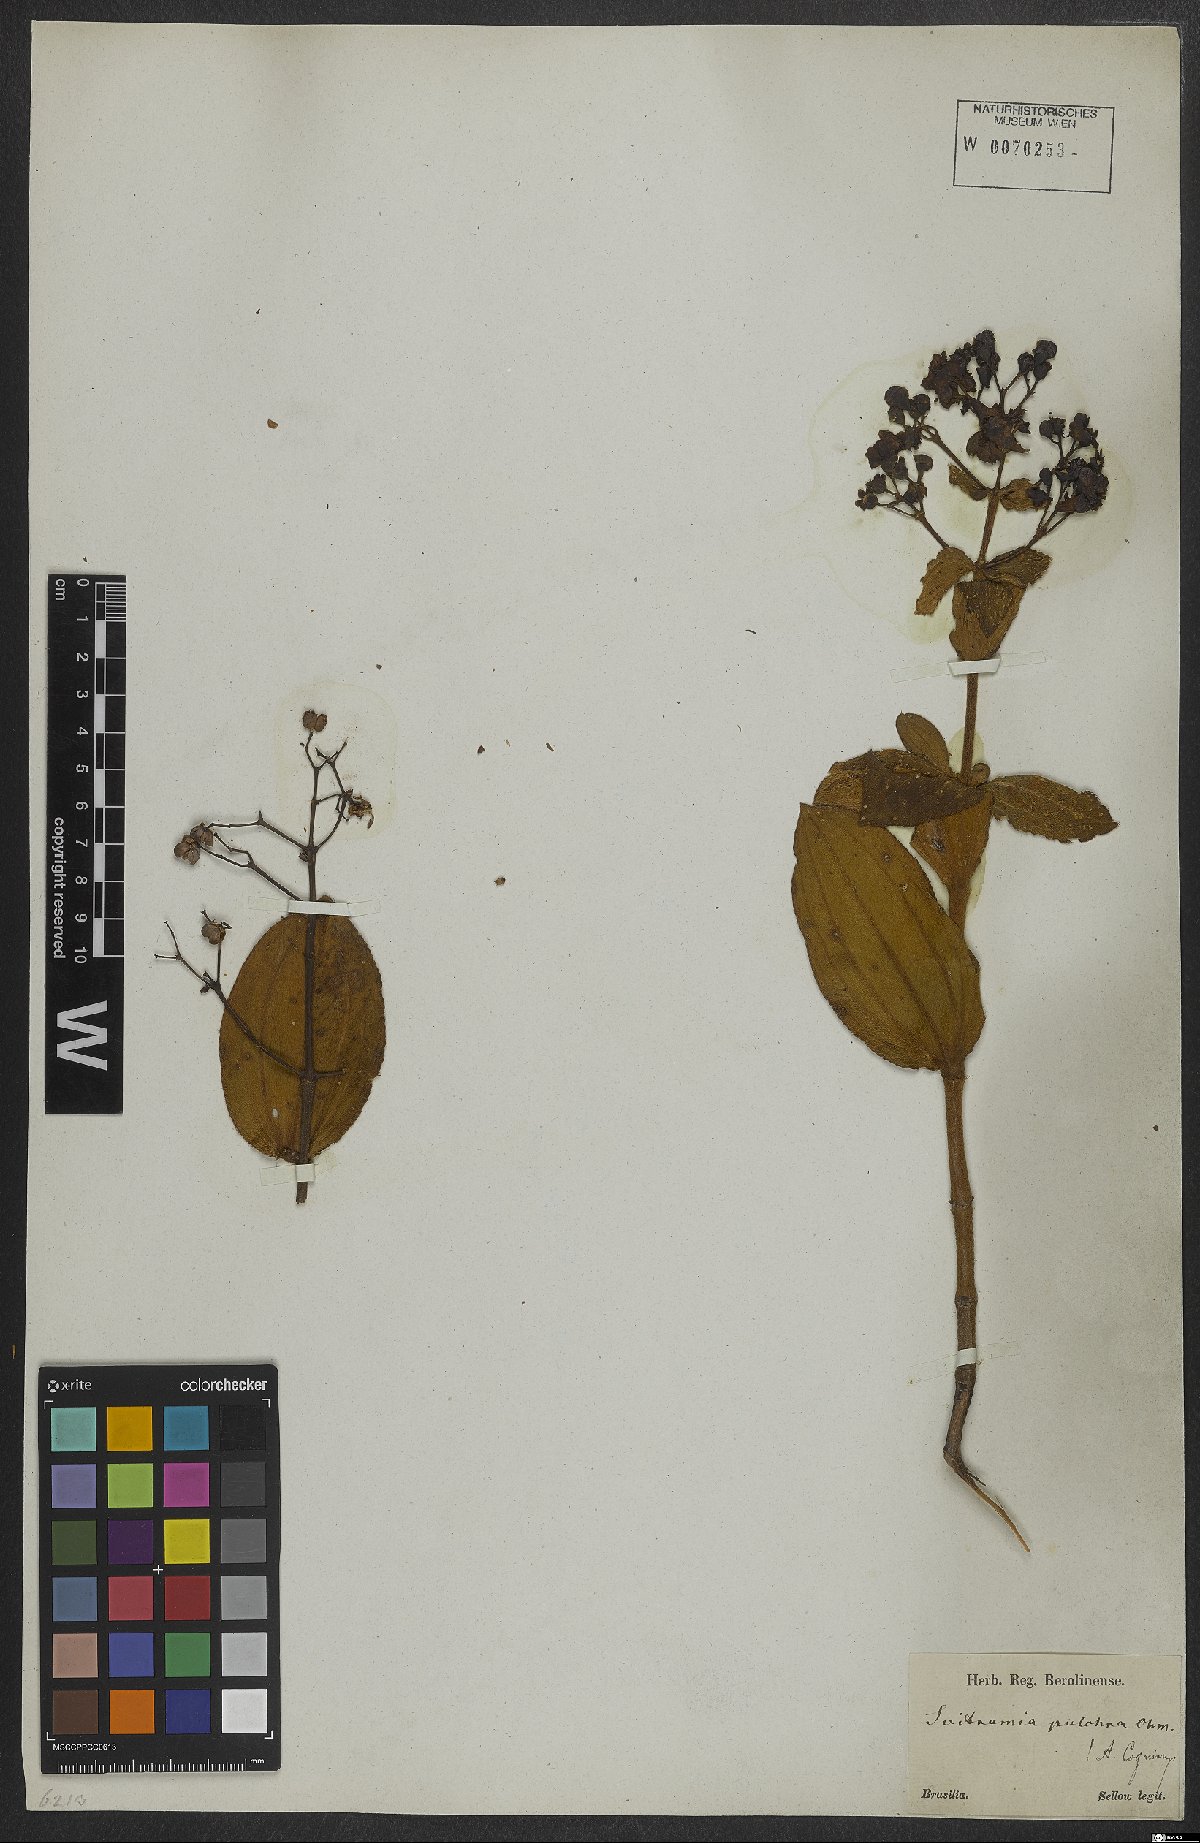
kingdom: Plantae
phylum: Tracheophyta
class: Magnoliopsida
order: Myrtales
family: Melastomataceae
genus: Pleroma
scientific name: Pleroma bandeirae
